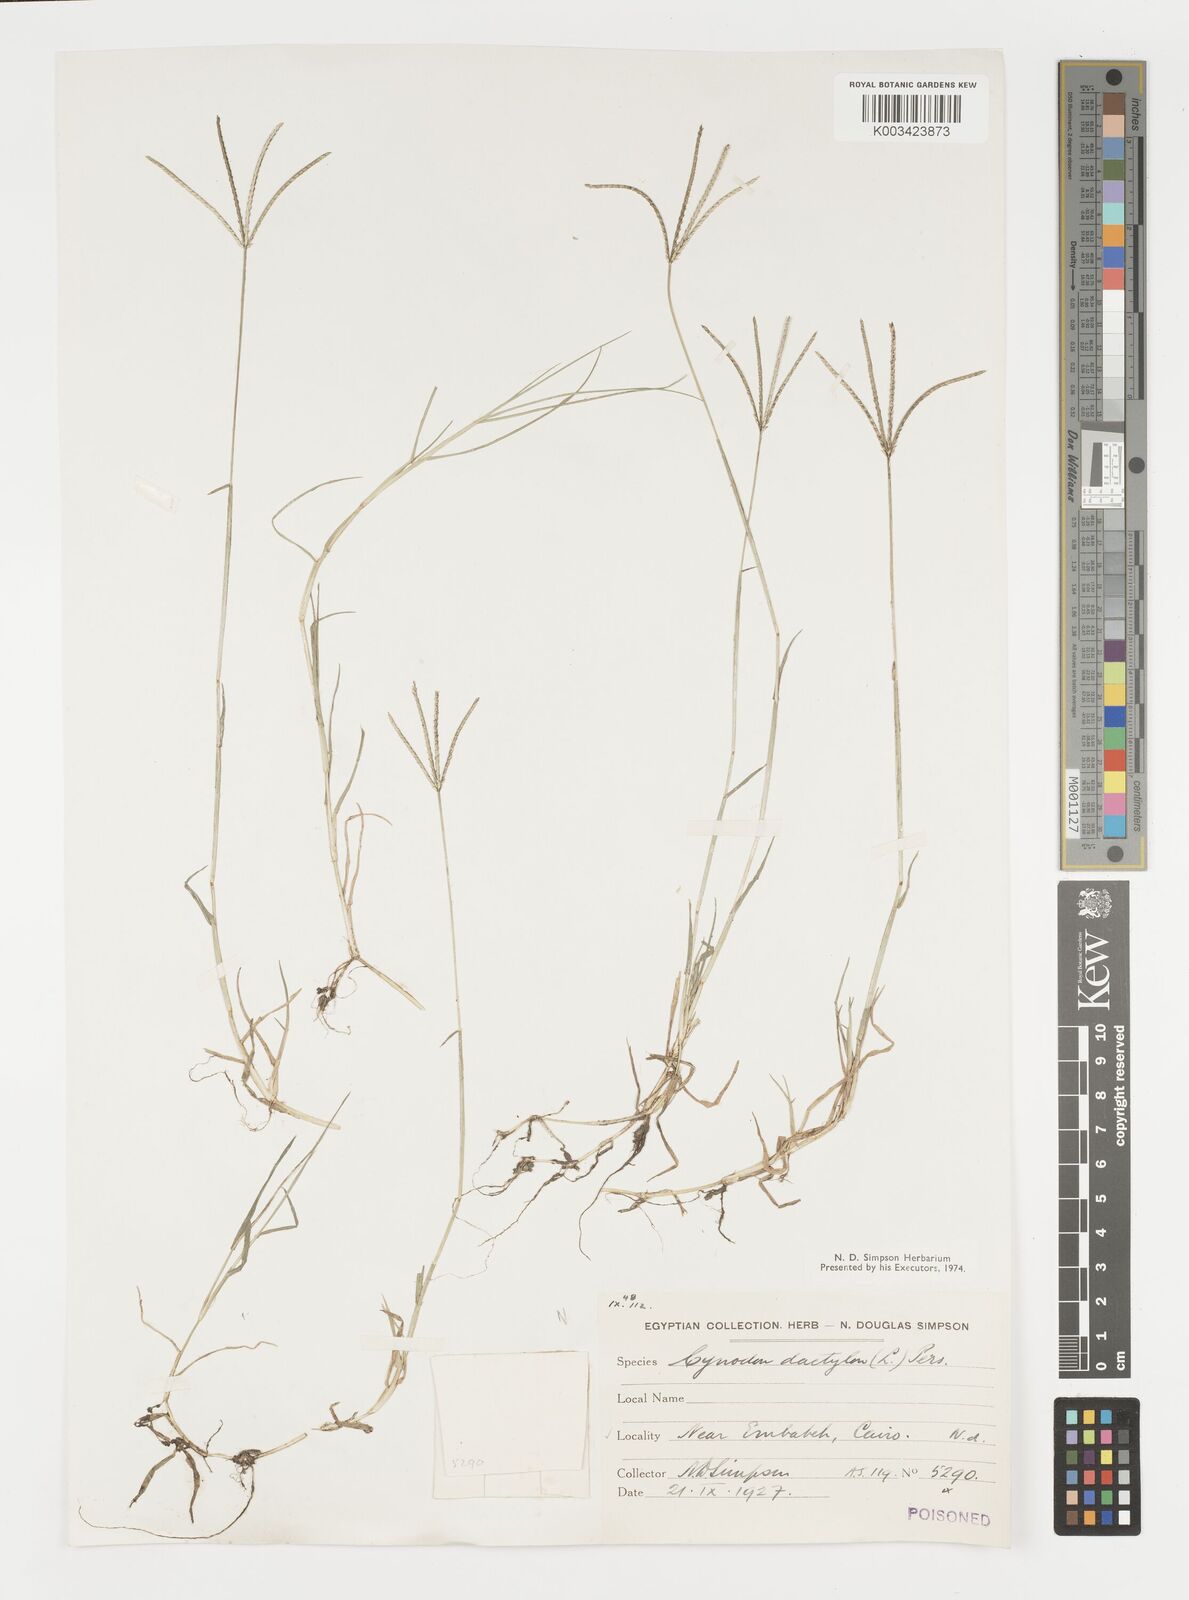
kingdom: Plantae
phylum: Tracheophyta
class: Liliopsida
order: Poales
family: Poaceae
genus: Cynodon
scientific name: Cynodon dactylon
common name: Bermuda grass
